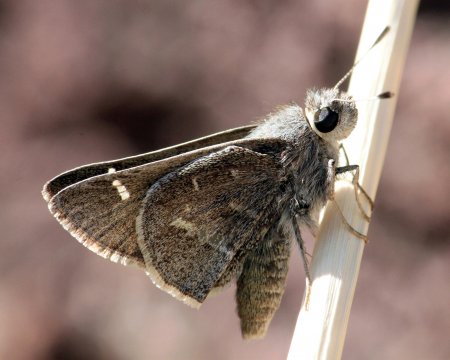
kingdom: Animalia
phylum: Arthropoda
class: Insecta
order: Lepidoptera
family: Hesperiidae
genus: Atrytonopsis
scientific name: Atrytonopsis pittacus
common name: White-barred Skipper
